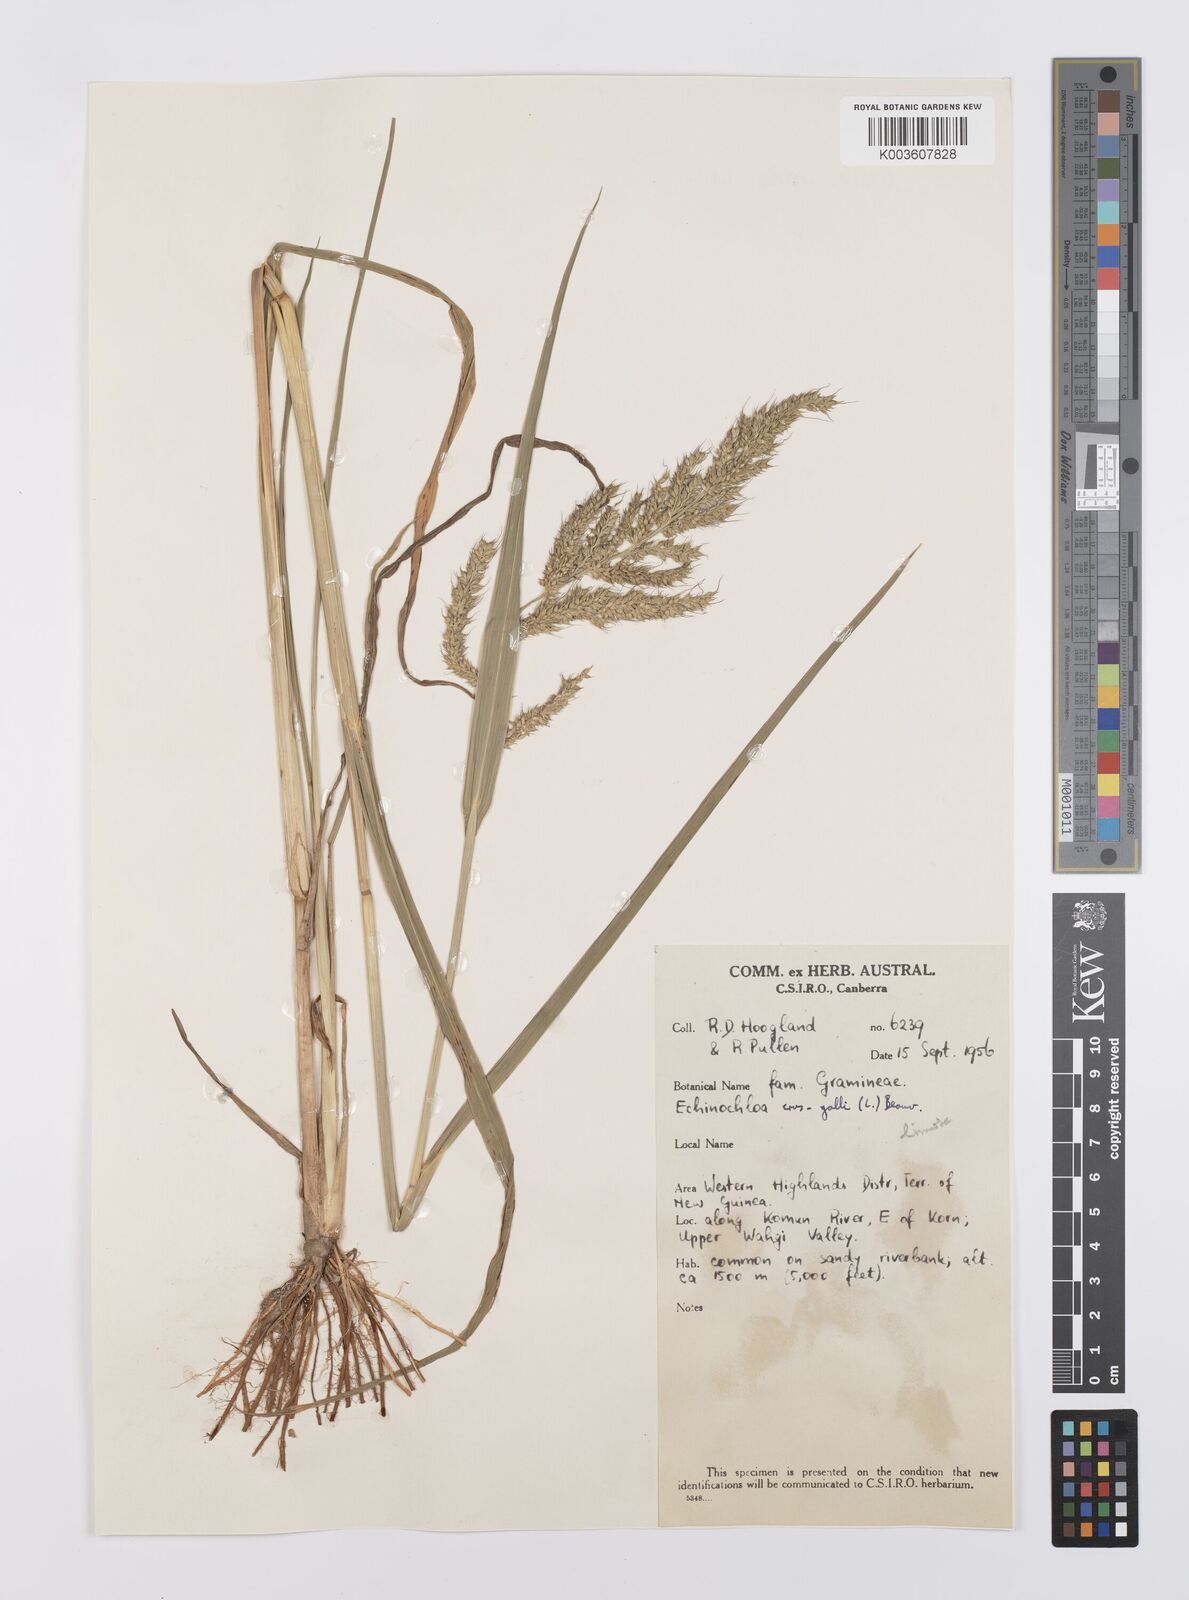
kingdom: Plantae
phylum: Tracheophyta
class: Liliopsida
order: Poales
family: Poaceae
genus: Echinochloa
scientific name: Echinochloa crus-galli
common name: Cockspur
